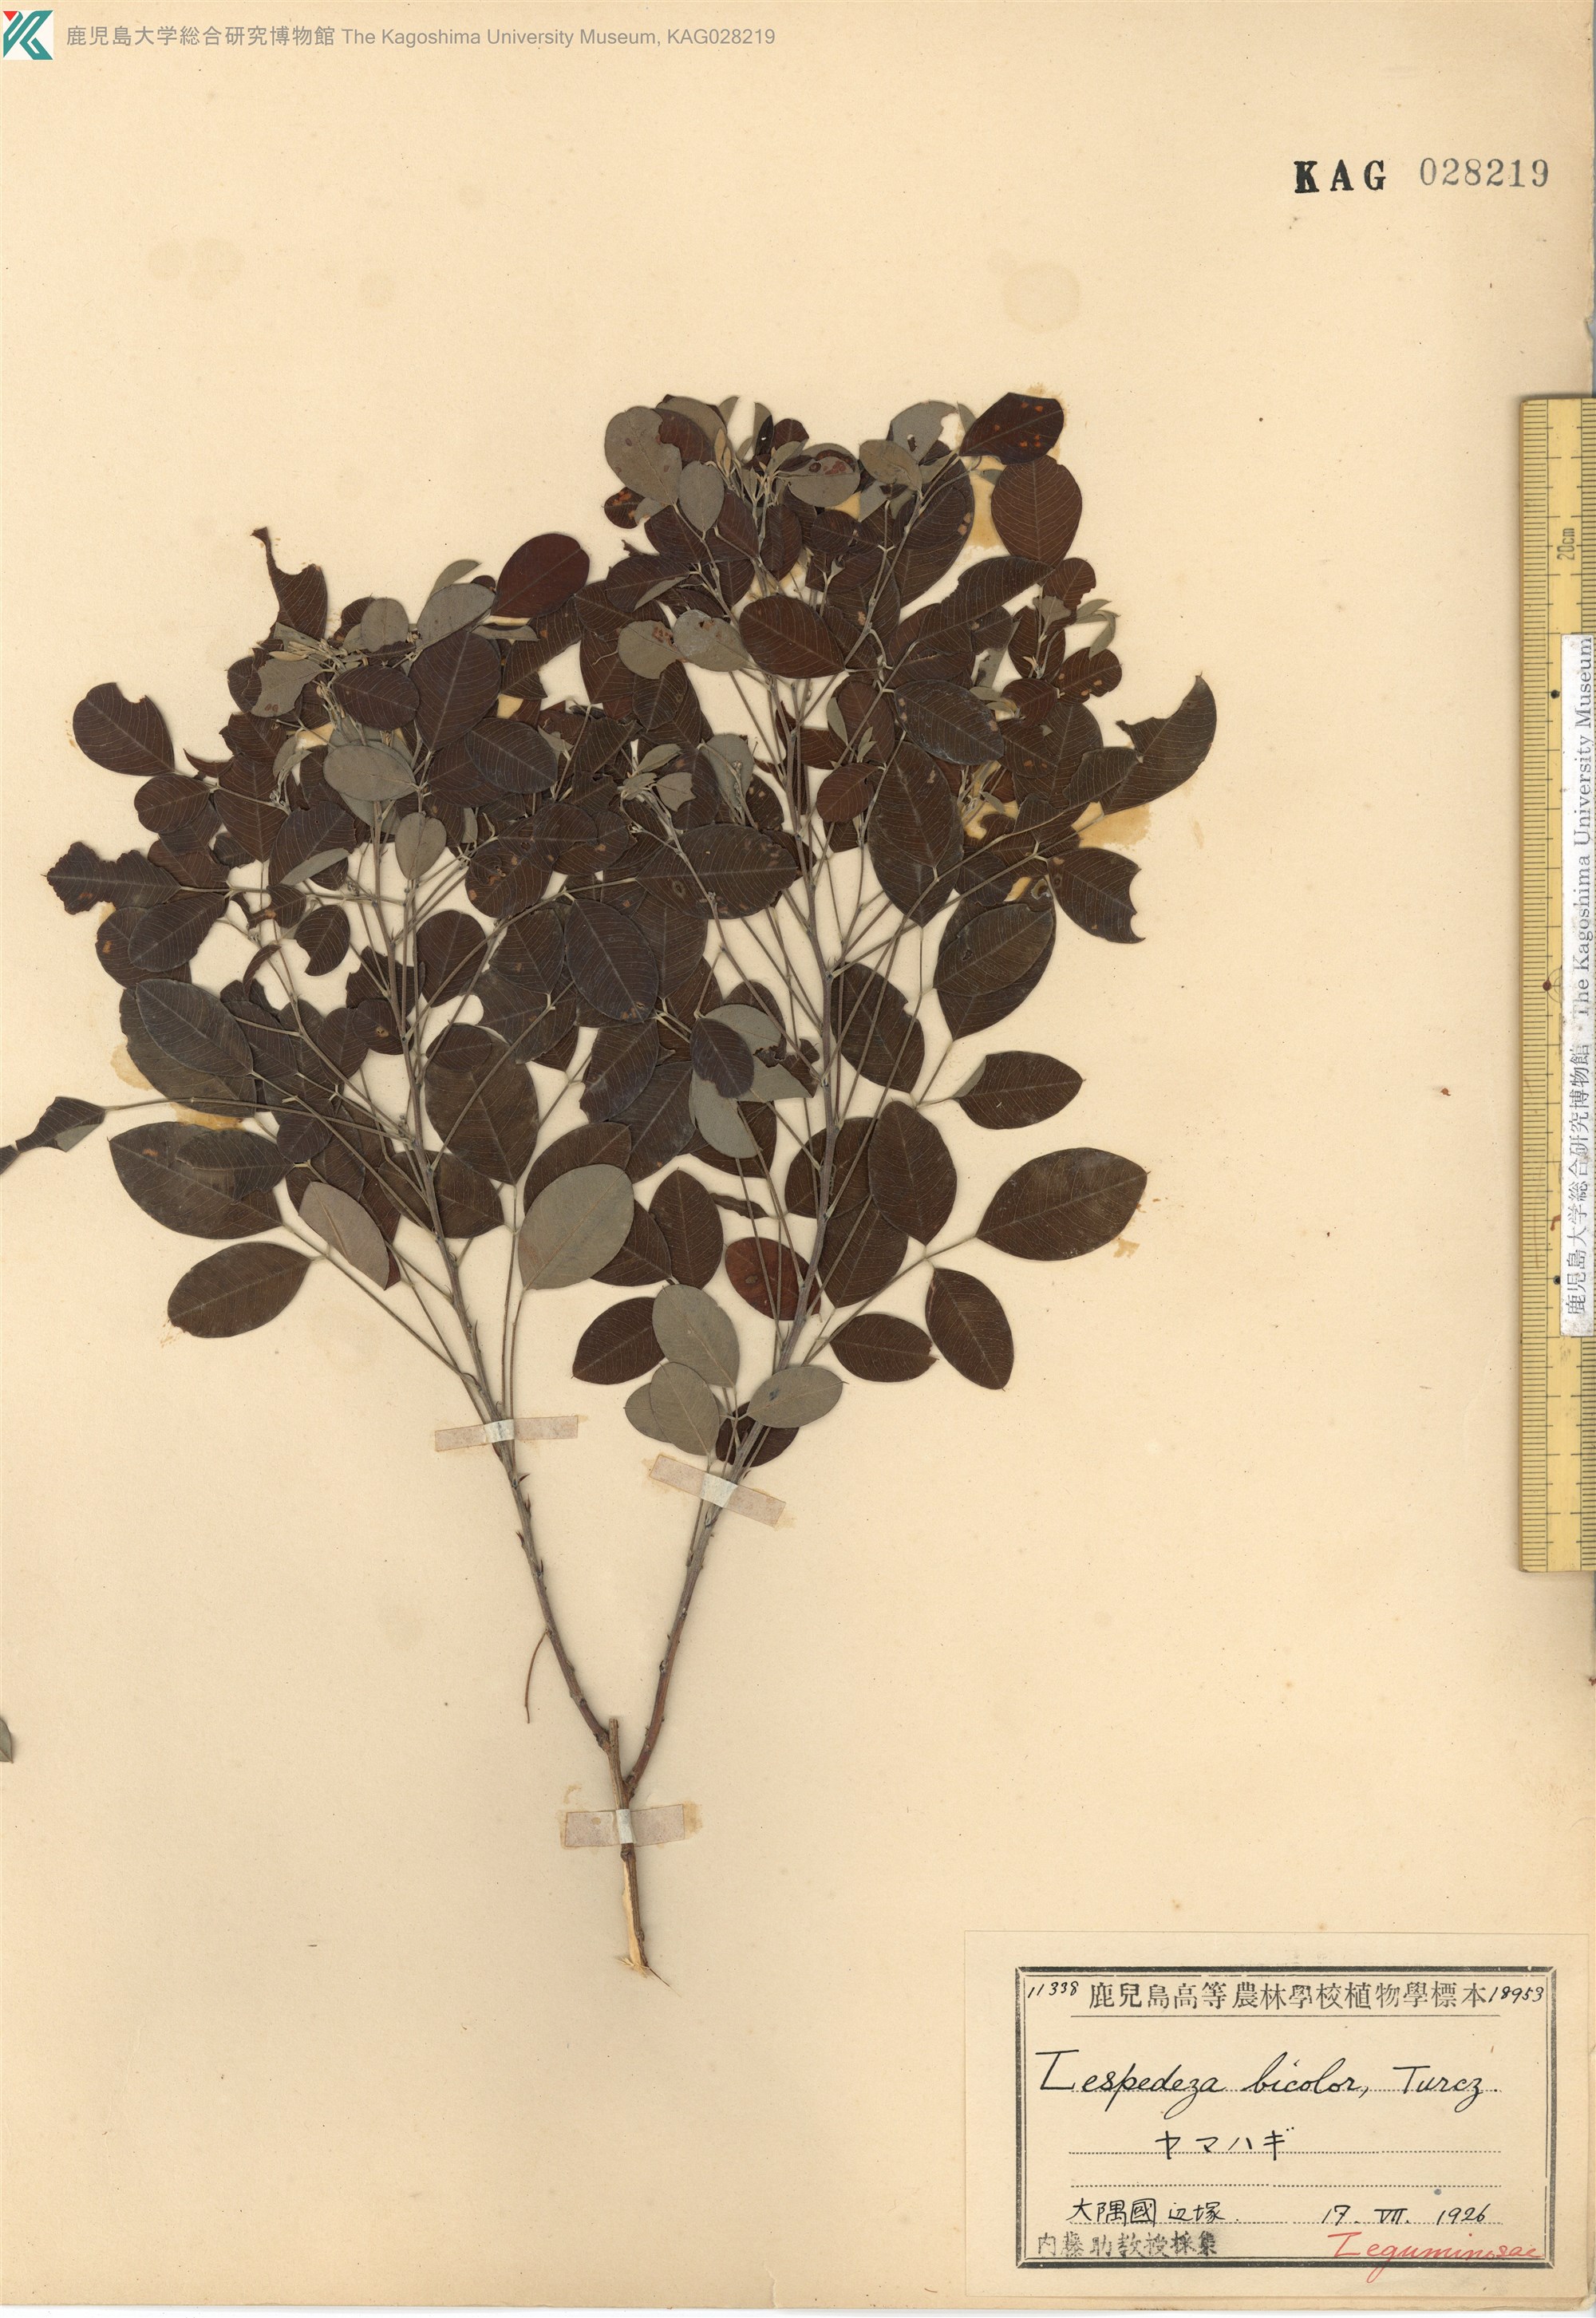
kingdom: Plantae
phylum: Tracheophyta
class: Magnoliopsida
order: Fabales
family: Fabaceae
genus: Lespedeza
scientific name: Lespedeza cyrtobotrya
